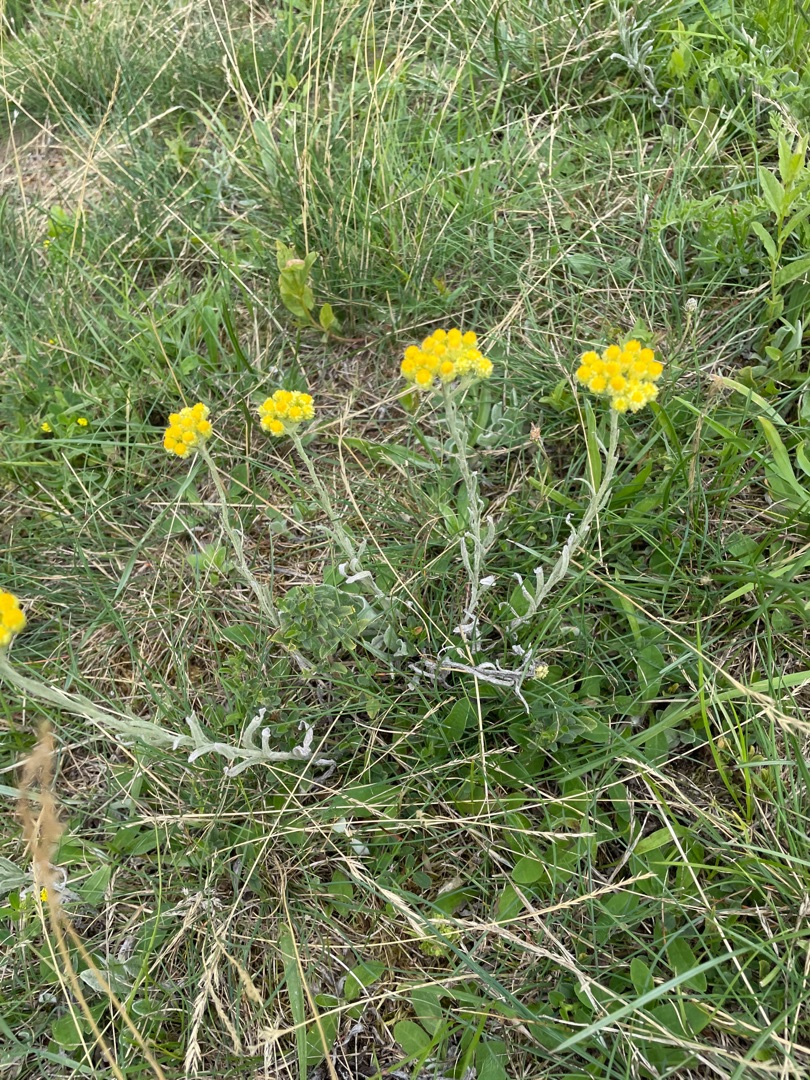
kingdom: Plantae
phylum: Tracheophyta
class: Magnoliopsida
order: Asterales
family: Asteraceae
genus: Helichrysum
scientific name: Helichrysum arenarium
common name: Gul evighedsblomst
